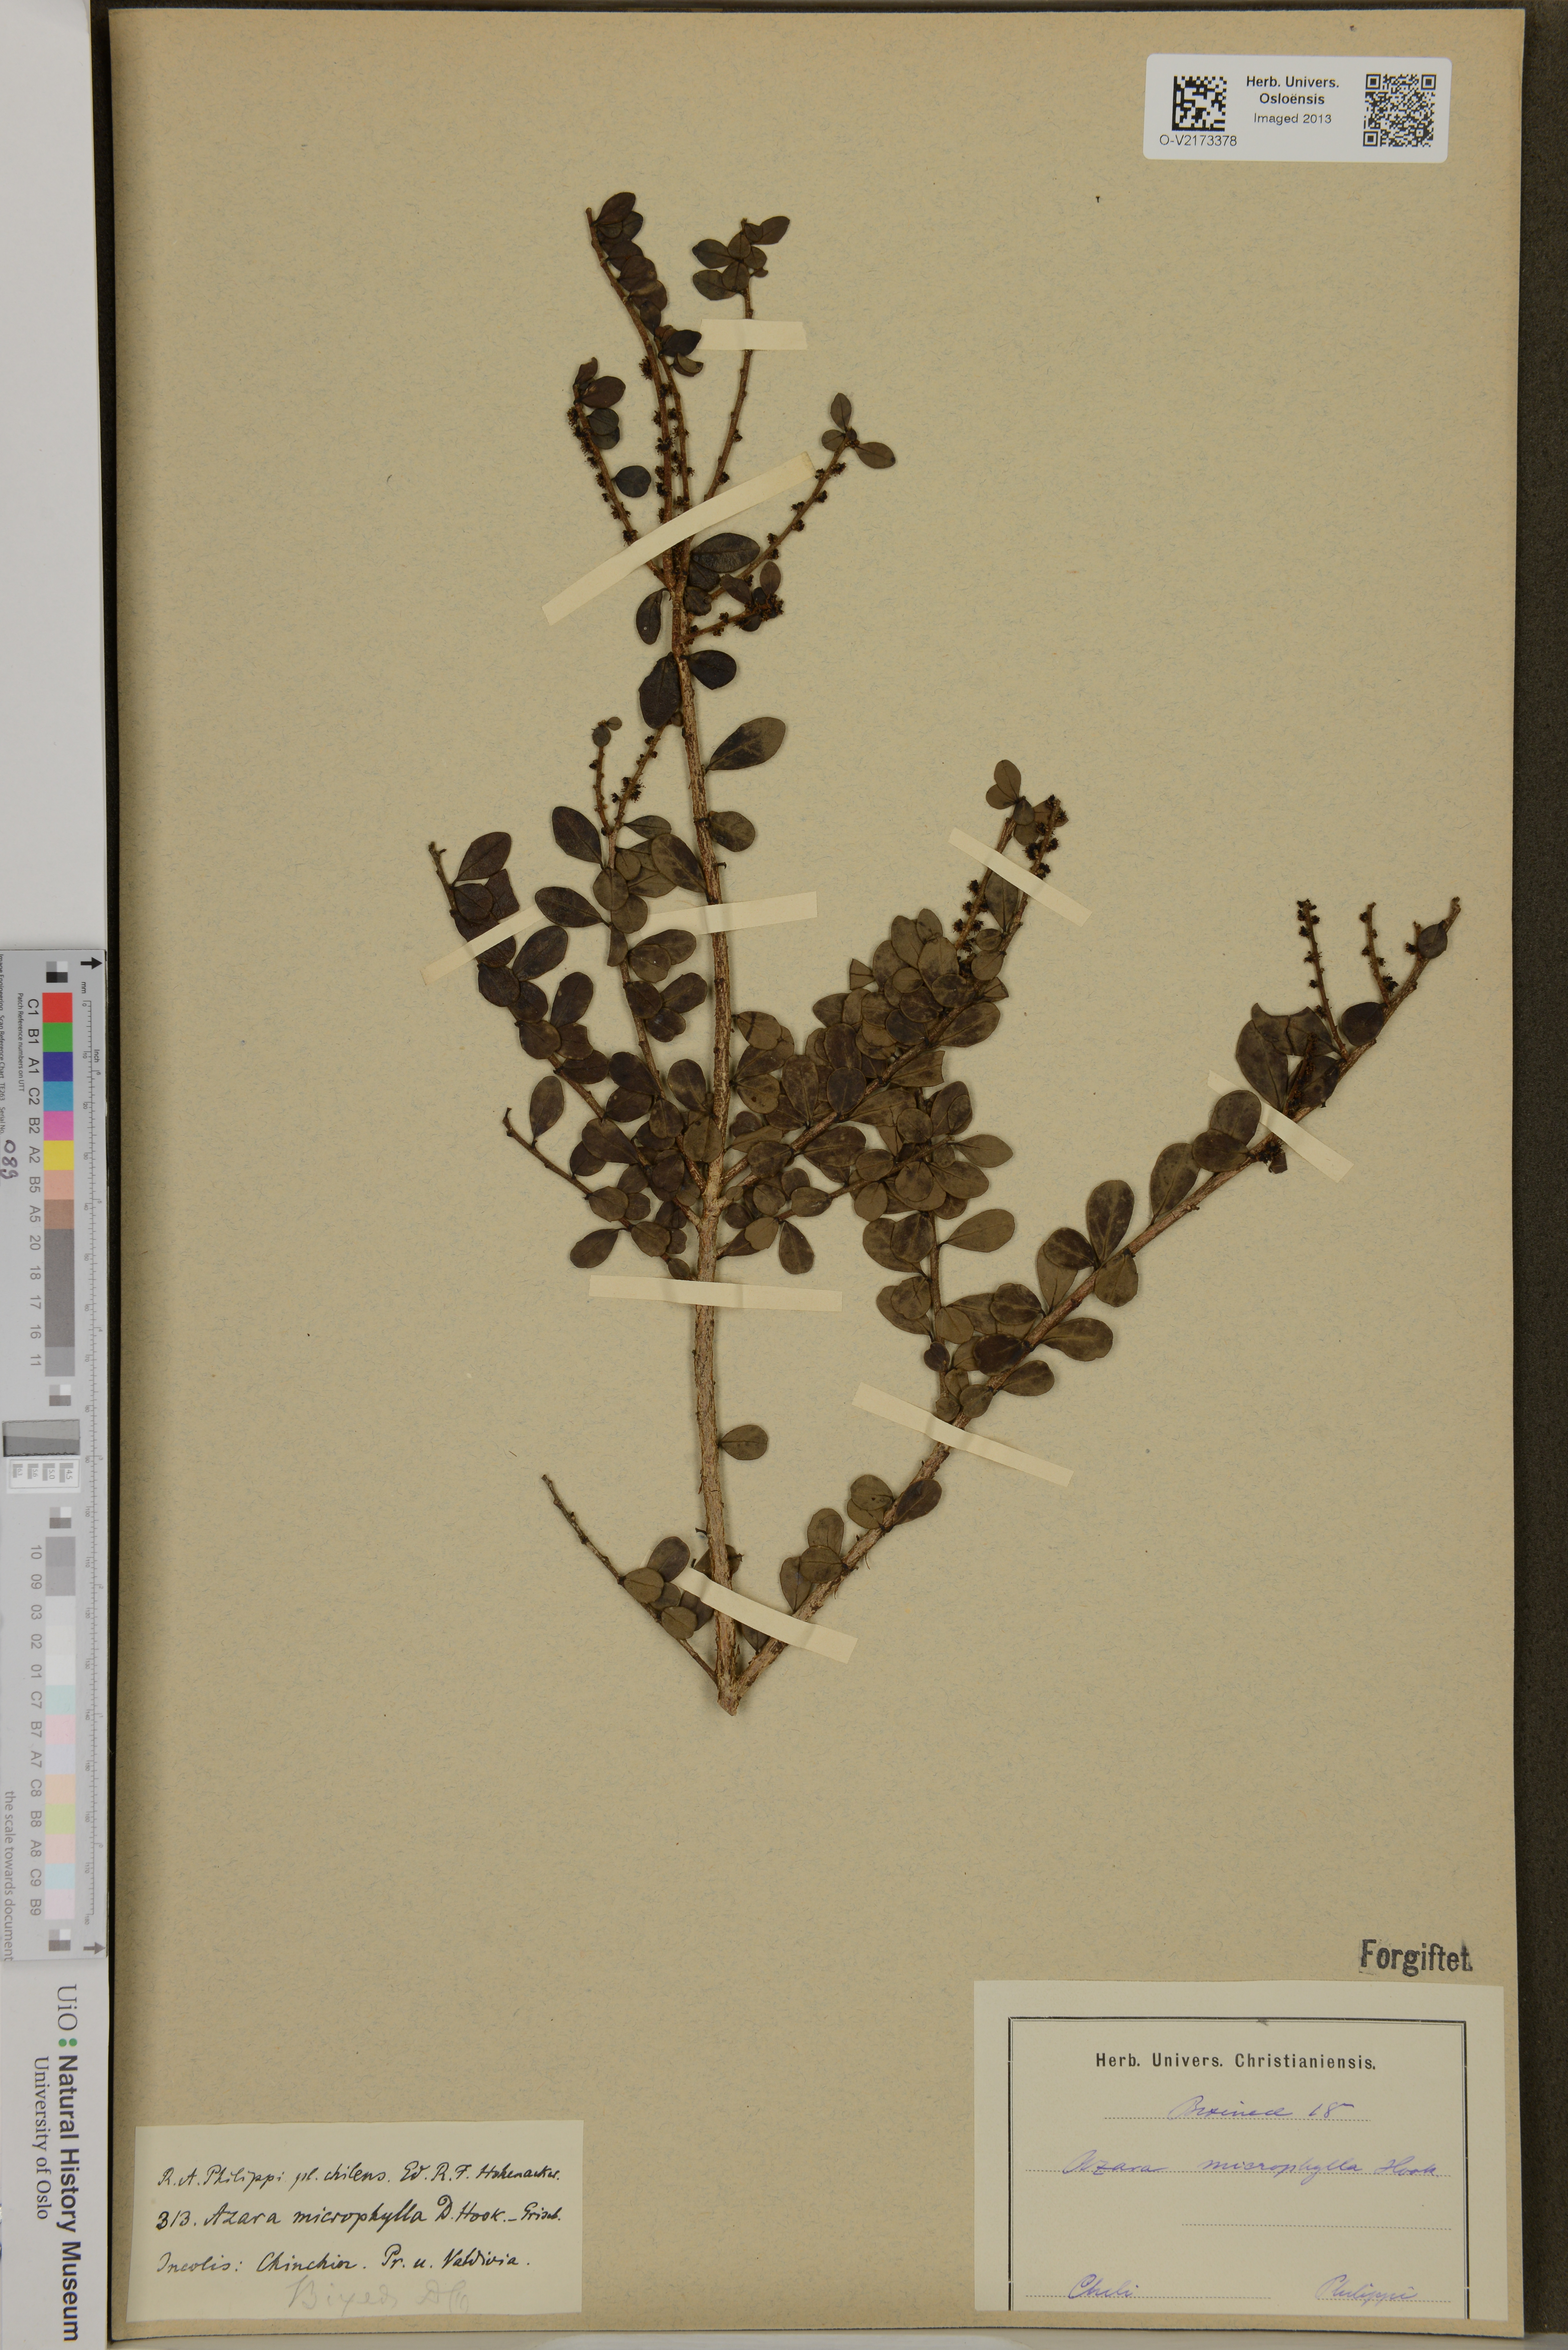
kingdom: Plantae
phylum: Tracheophyta
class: Magnoliopsida
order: Malpighiales
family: Salicaceae
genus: Azara
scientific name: Azara microphylla
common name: Box-leaf azara
